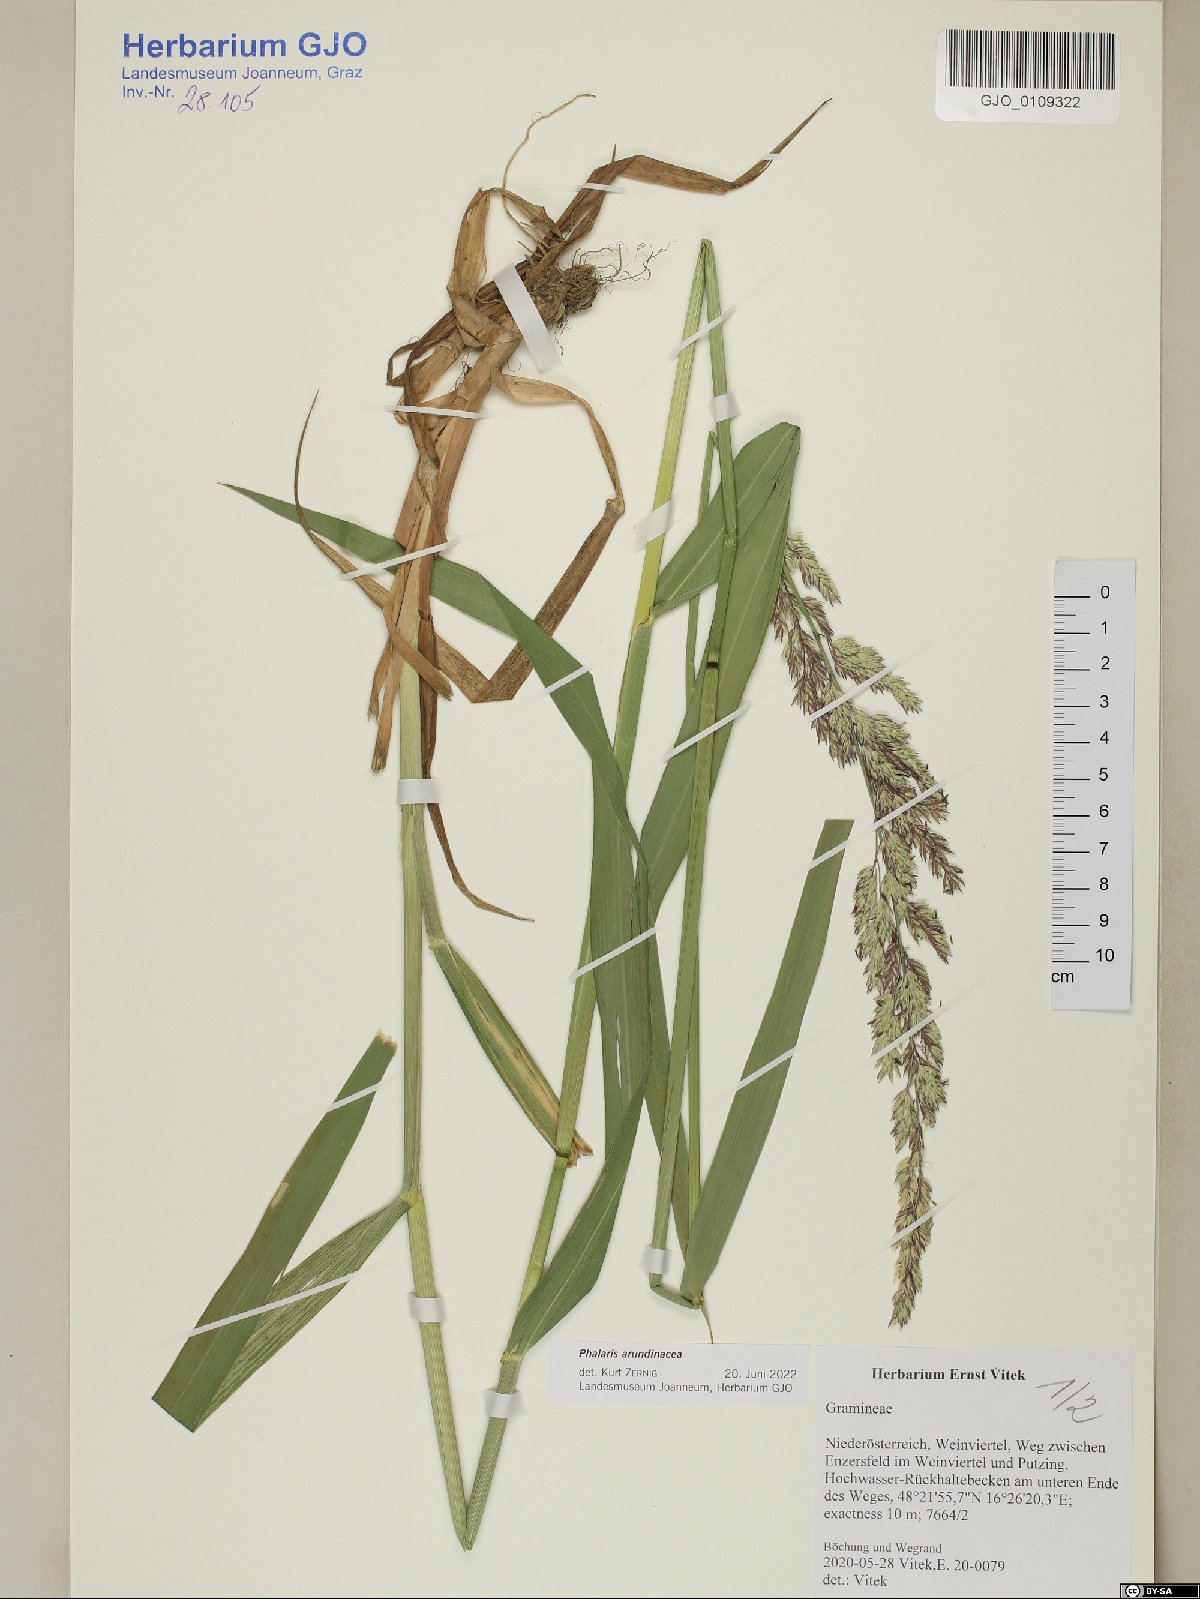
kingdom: Plantae
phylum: Tracheophyta
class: Liliopsida
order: Poales
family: Poaceae
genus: Phalaris
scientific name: Phalaris arundinacea
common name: Reed canary-grass
